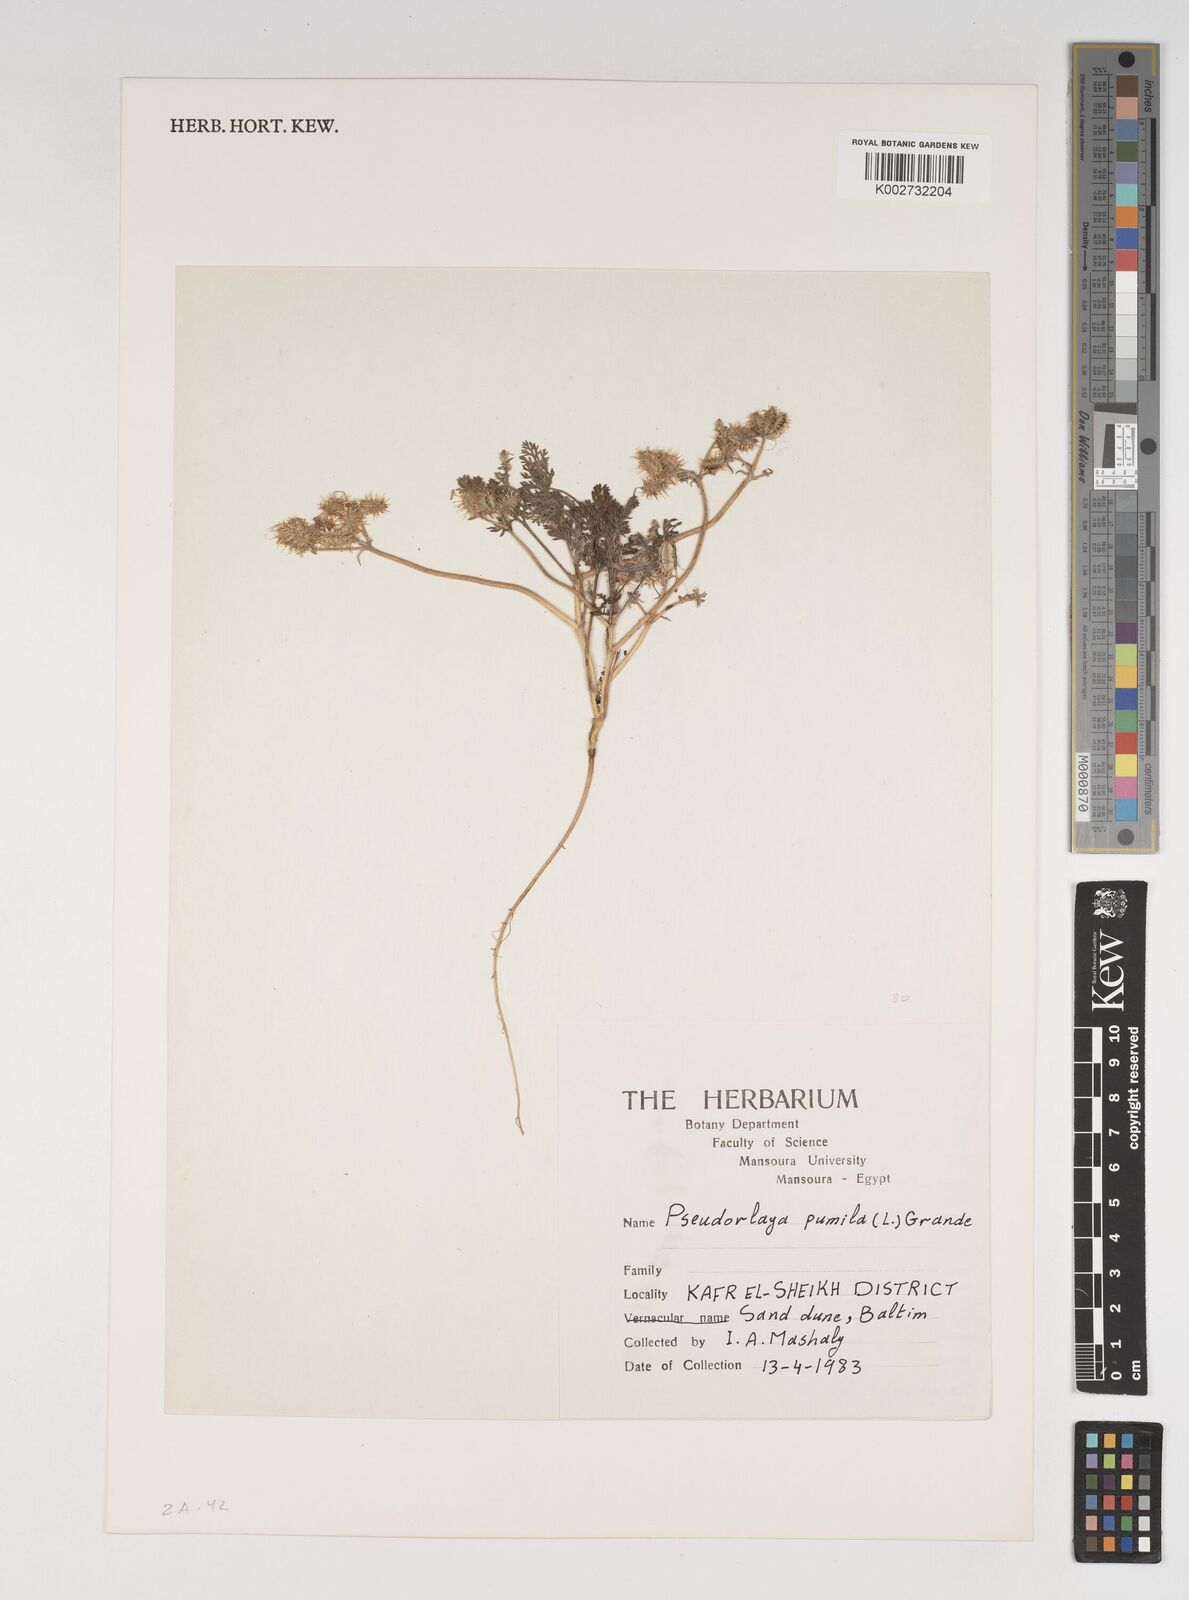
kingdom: Plantae
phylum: Tracheophyta
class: Magnoliopsida
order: Apiales
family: Apiaceae
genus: Daucus
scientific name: Daucus pumilus
